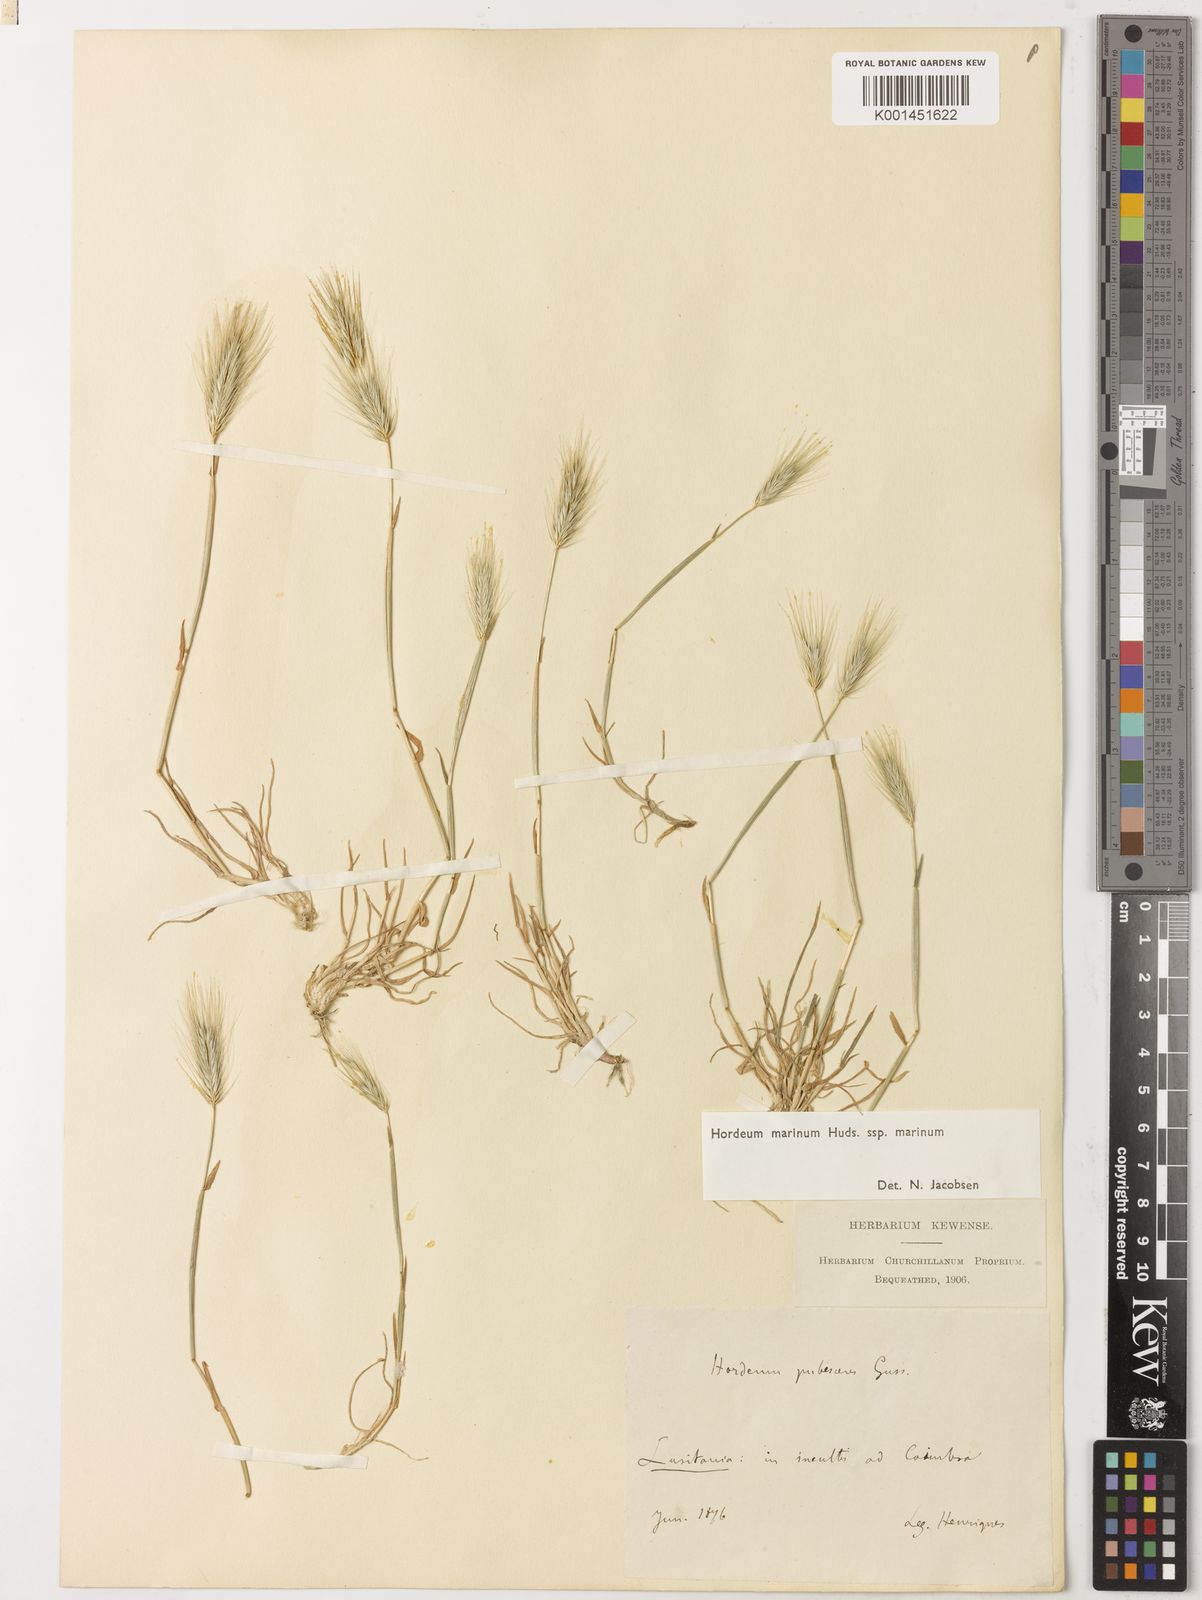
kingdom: Plantae
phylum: Tracheophyta
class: Liliopsida
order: Poales
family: Poaceae
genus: Hordeum
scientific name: Hordeum marinum
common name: Sea barley
